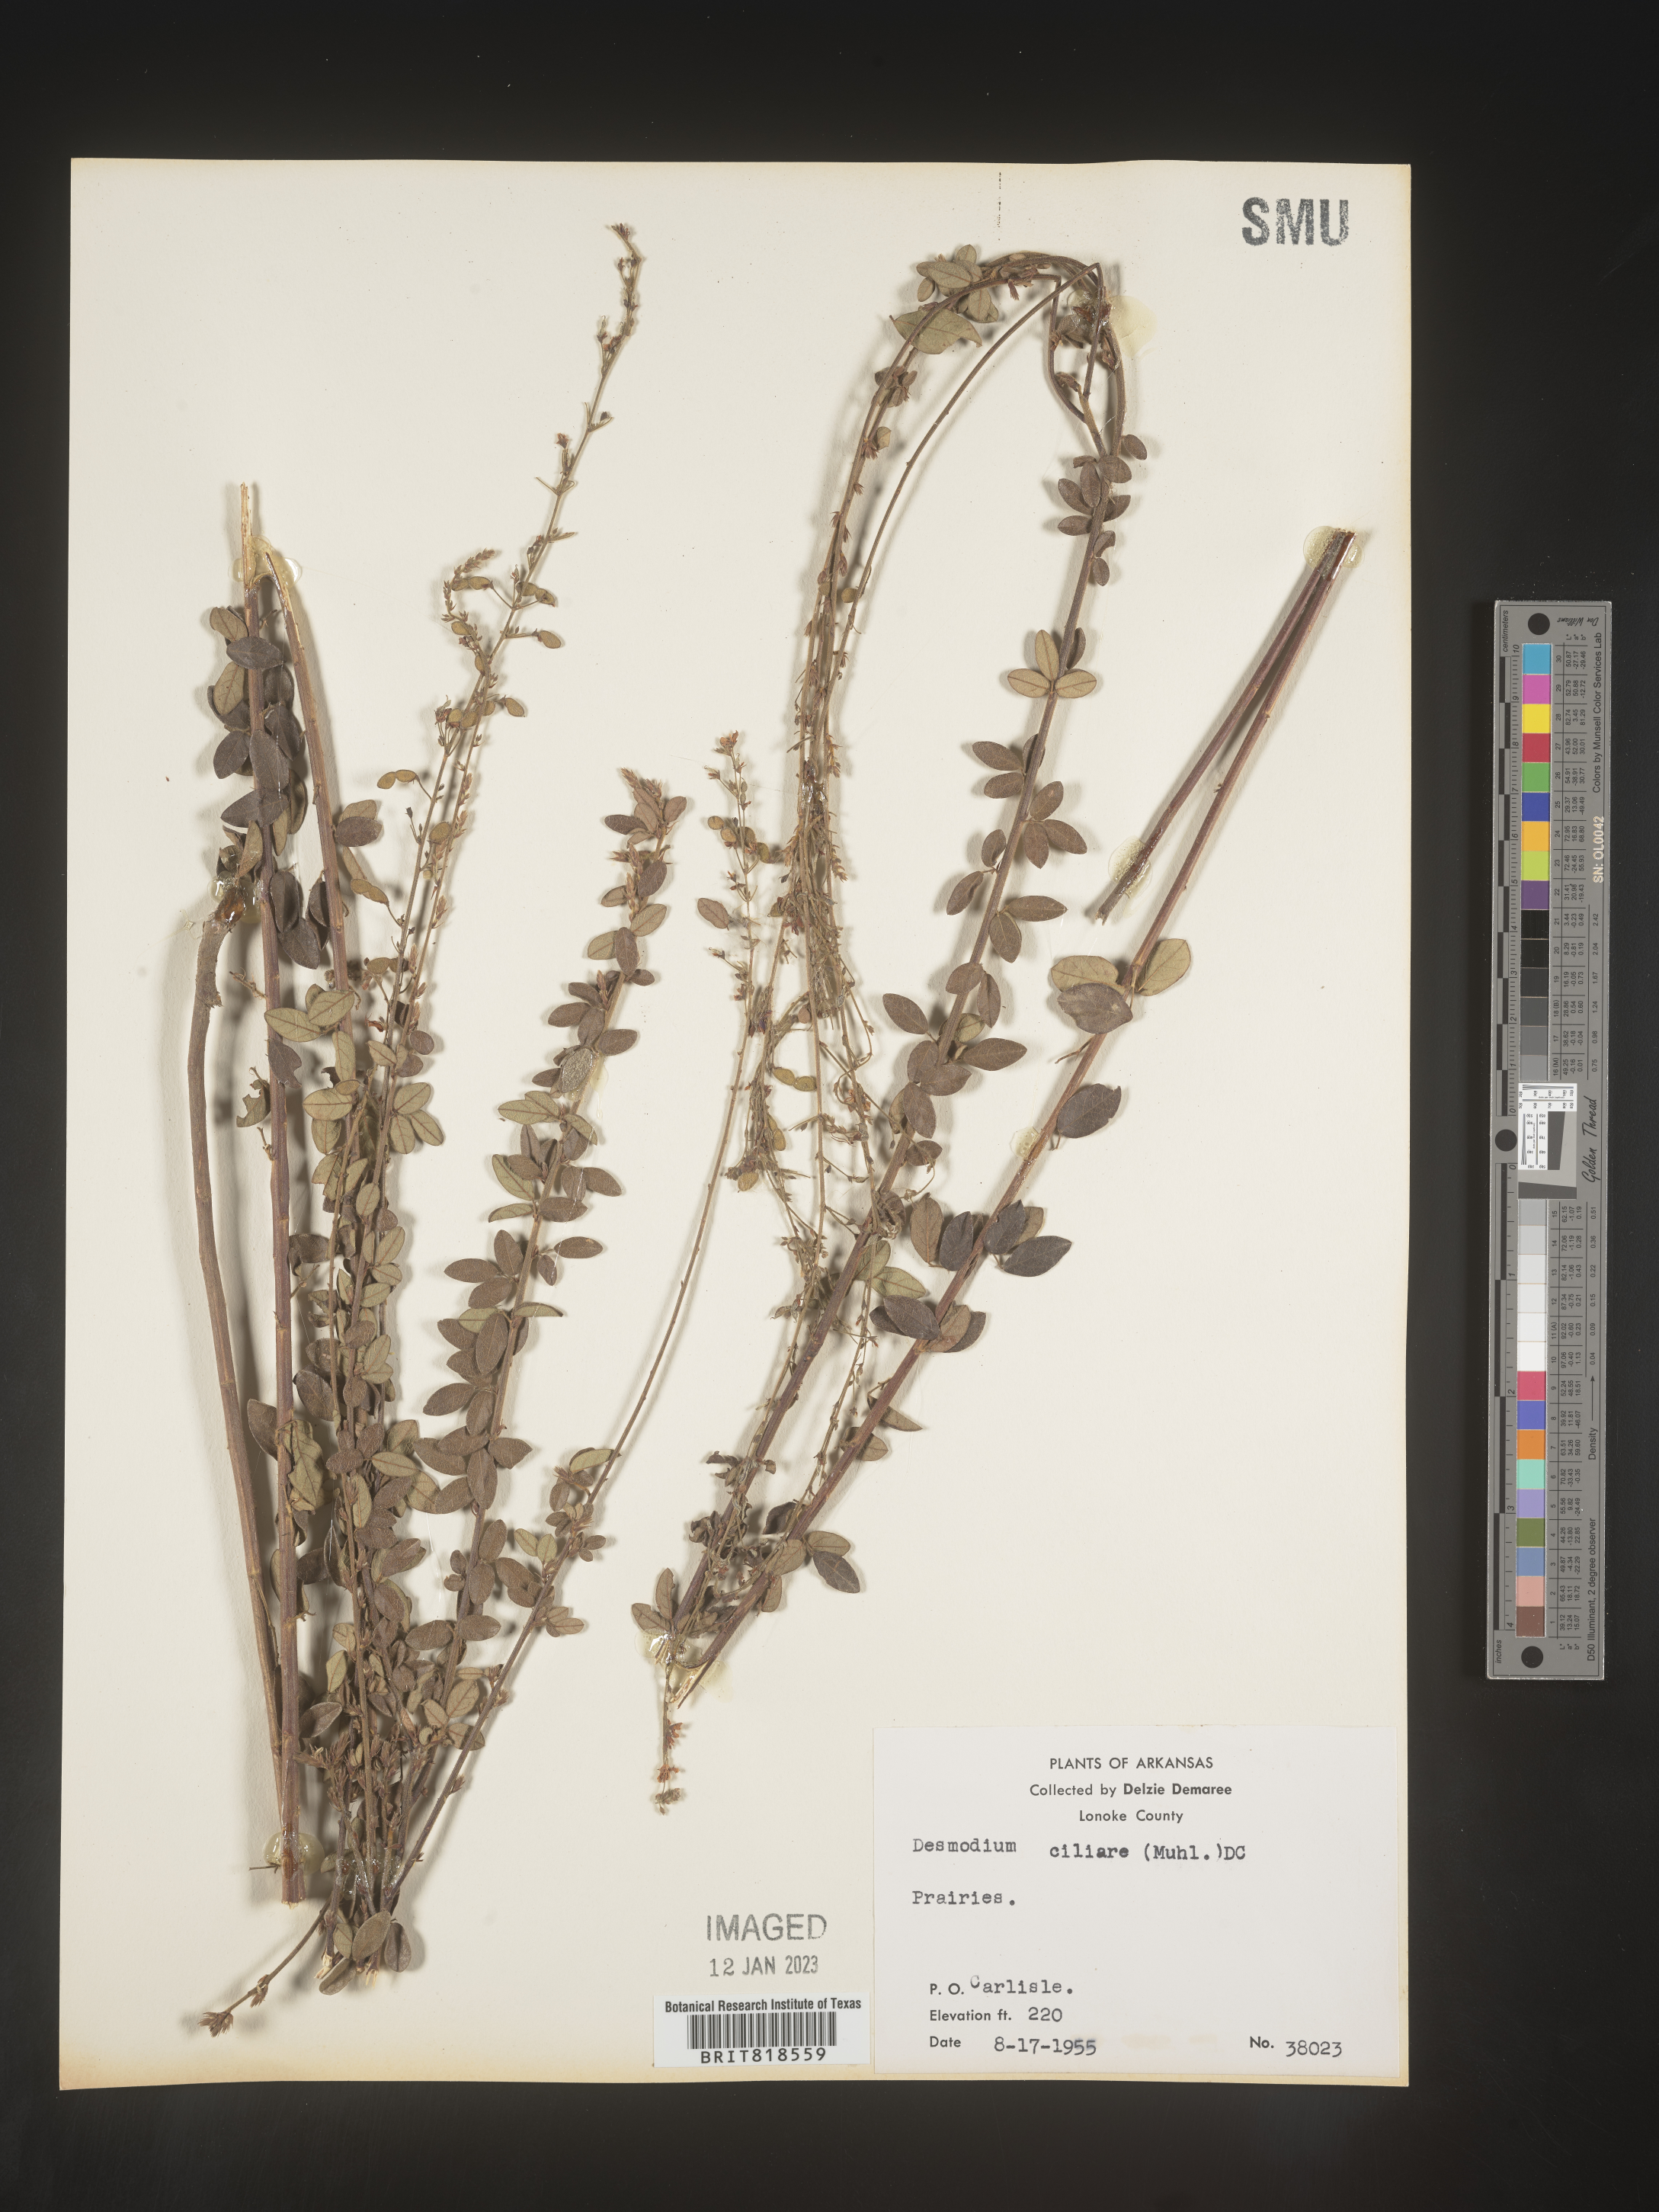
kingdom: Plantae
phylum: Tracheophyta
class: Magnoliopsida
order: Fabales
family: Fabaceae
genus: Desmodium
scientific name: Desmodium ciliare
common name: Hairy small-leaf ticktrefoil
